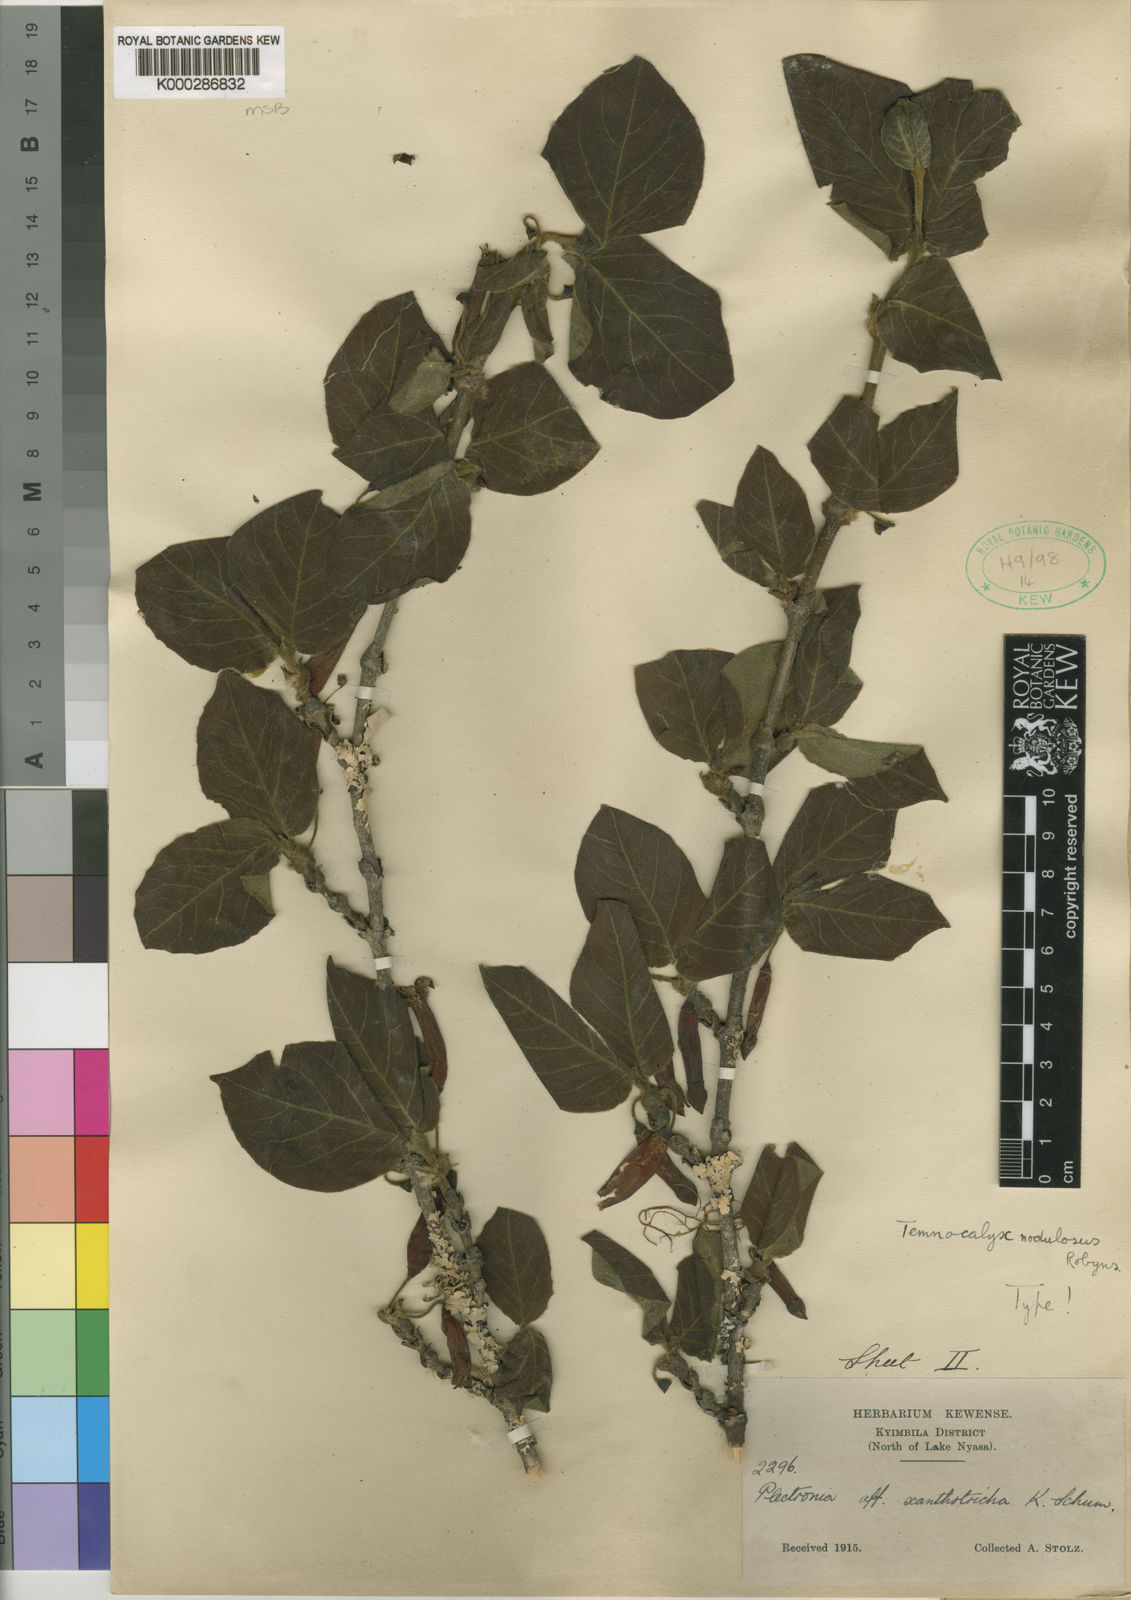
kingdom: Plantae
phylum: Tracheophyta
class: Magnoliopsida
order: Gentianales
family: Rubiaceae
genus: Temnocalyx
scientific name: Temnocalyx nodulosa
